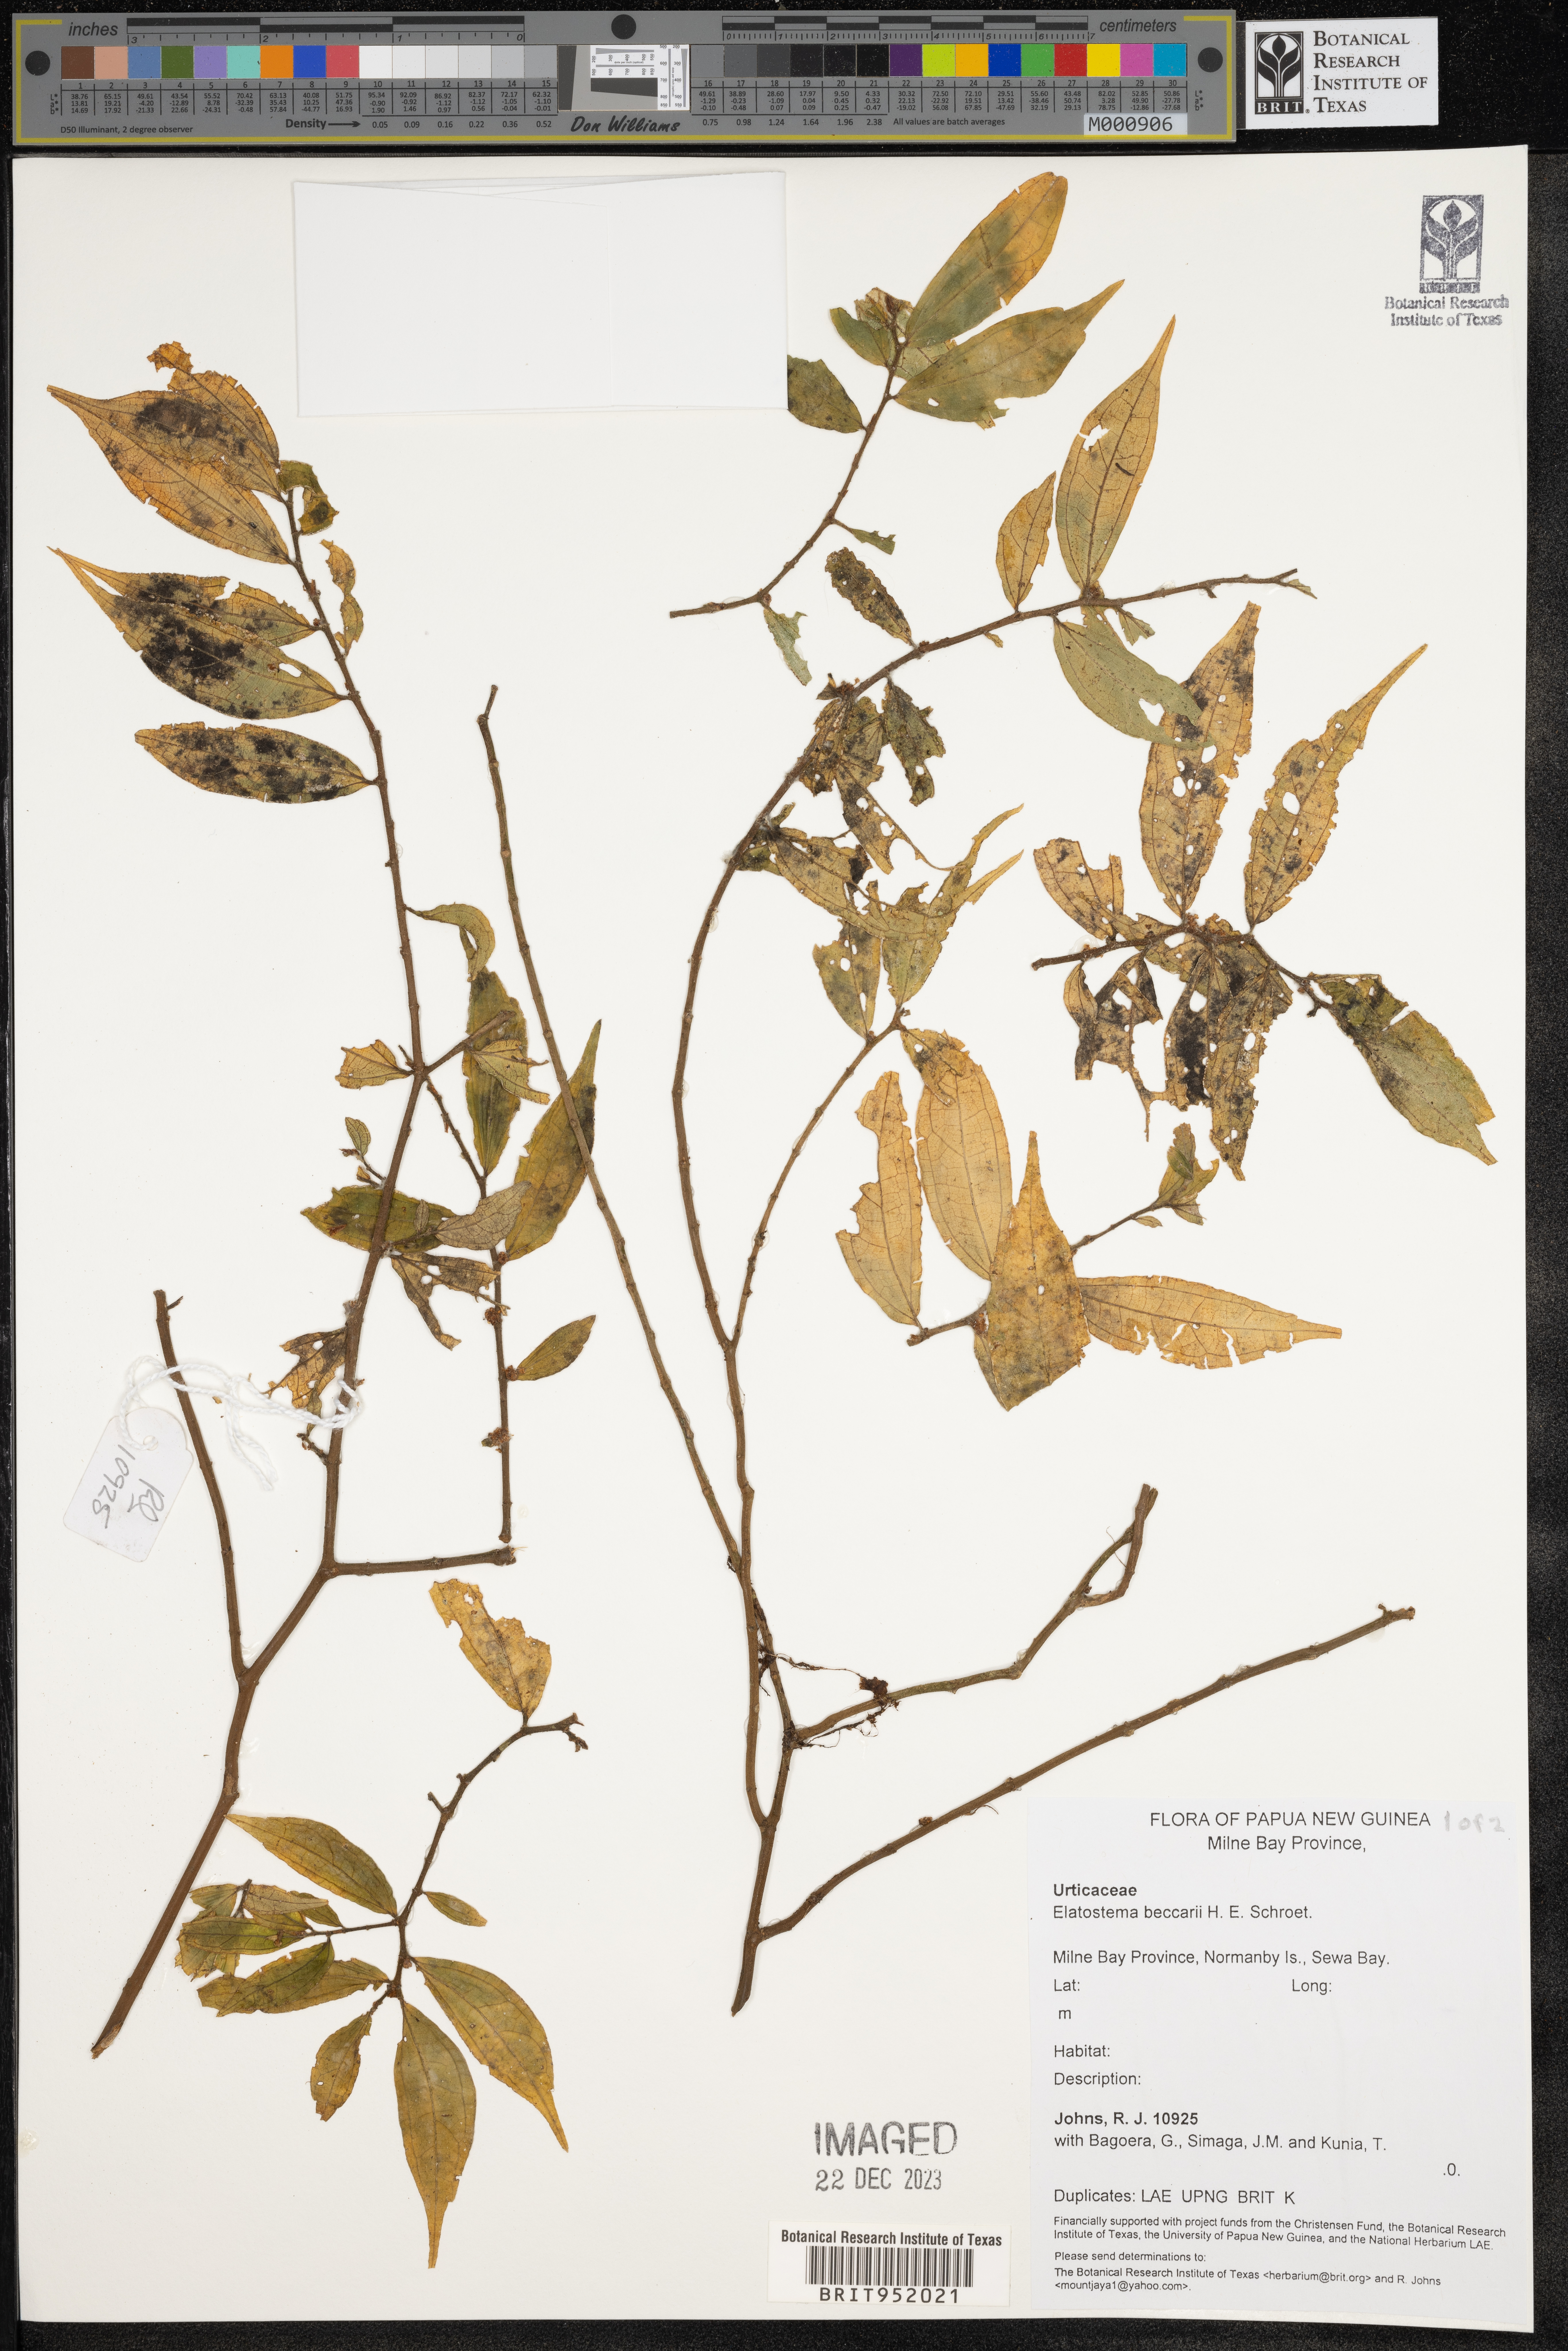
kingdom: Plantae
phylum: Tracheophyta
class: Magnoliopsida
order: Rosales
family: Urticaceae
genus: Elatostema
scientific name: Elatostema
